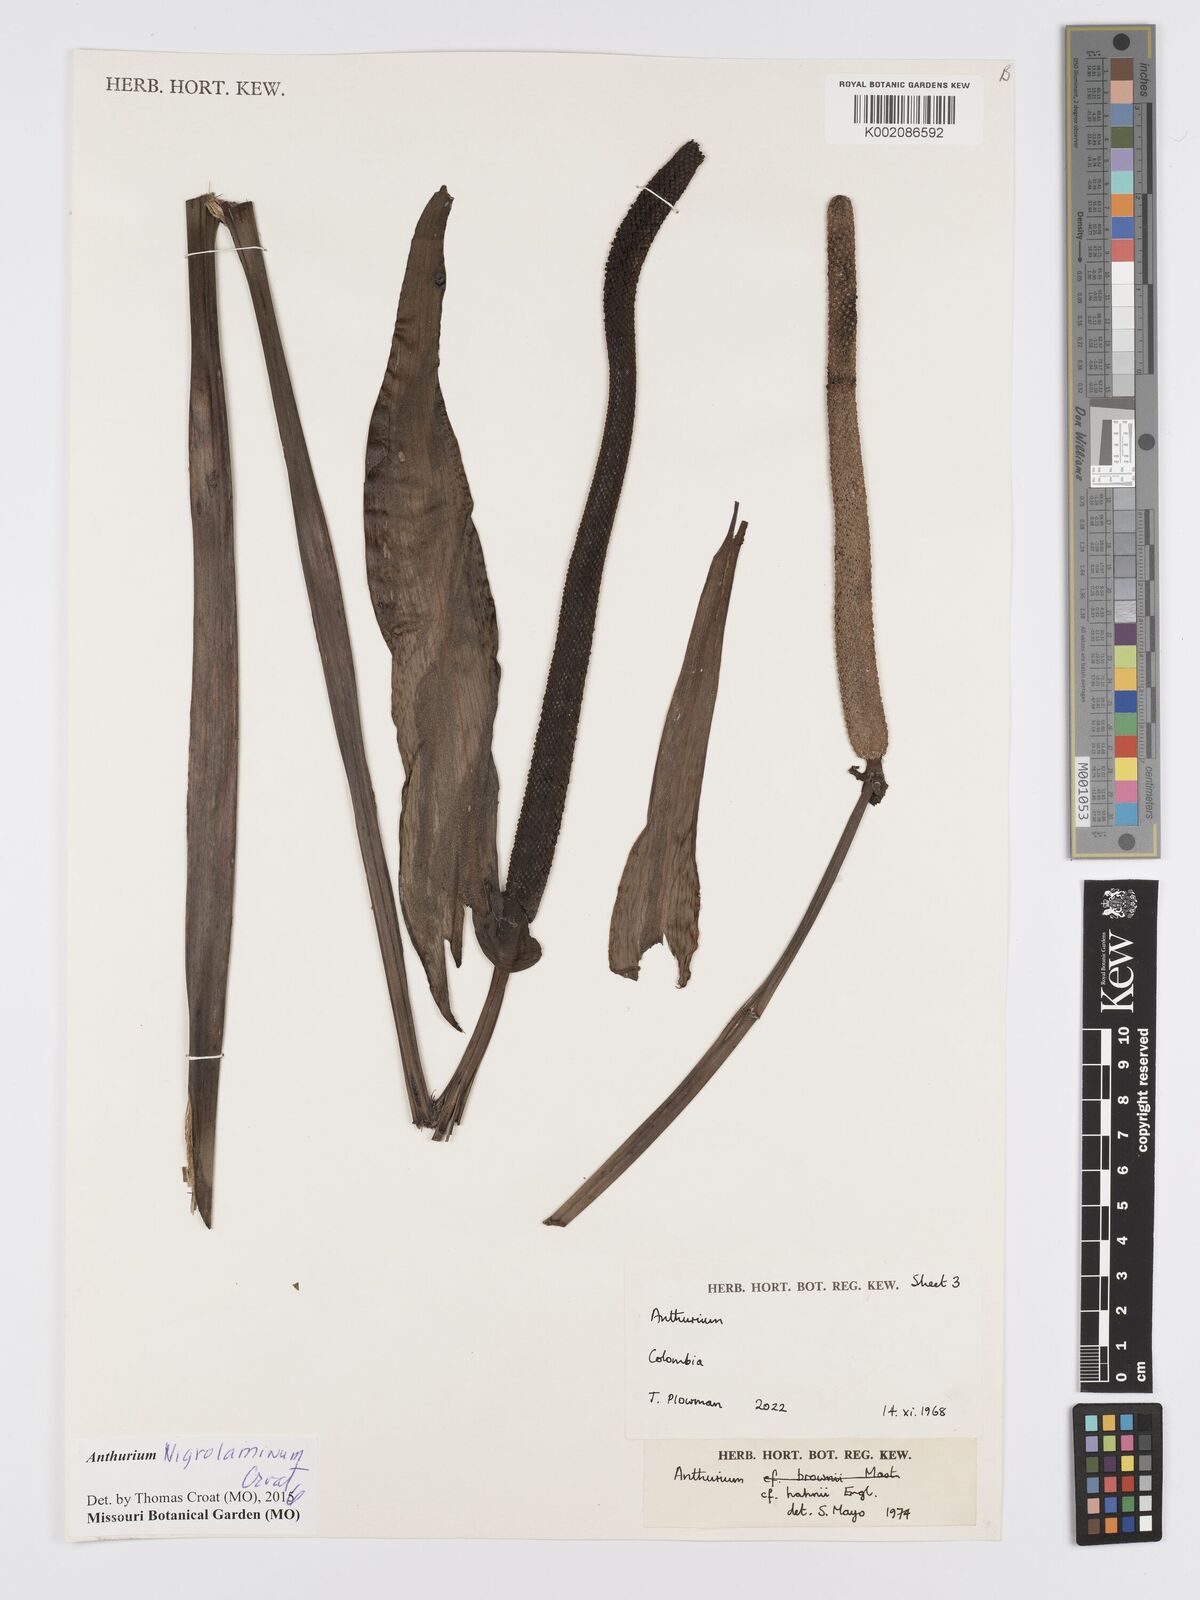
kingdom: Plantae
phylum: Tracheophyta
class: Liliopsida
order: Alismatales
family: Araceae
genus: Anthurium
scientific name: Anthurium nigropunctatum
